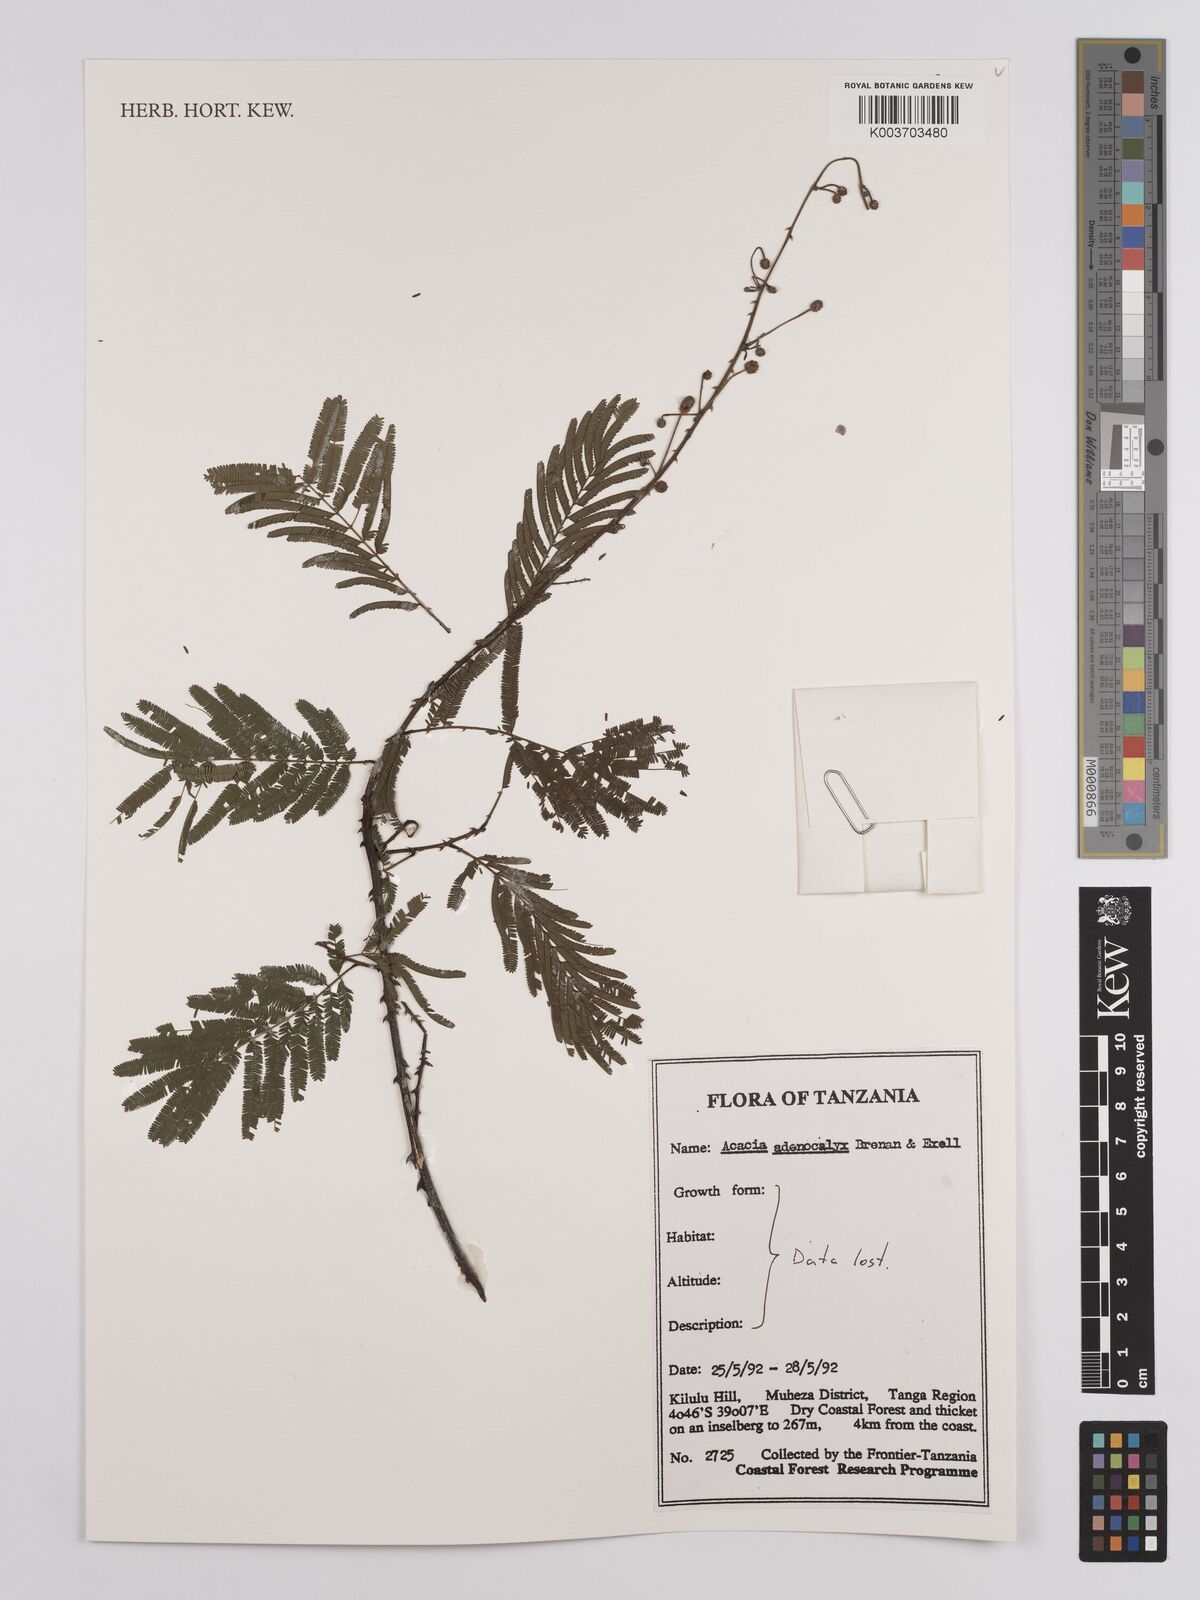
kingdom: Plantae
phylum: Tracheophyta
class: Magnoliopsida
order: Fabales
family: Fabaceae
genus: Senegalia
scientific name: Senegalia adenocalyx
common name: Pfurura
